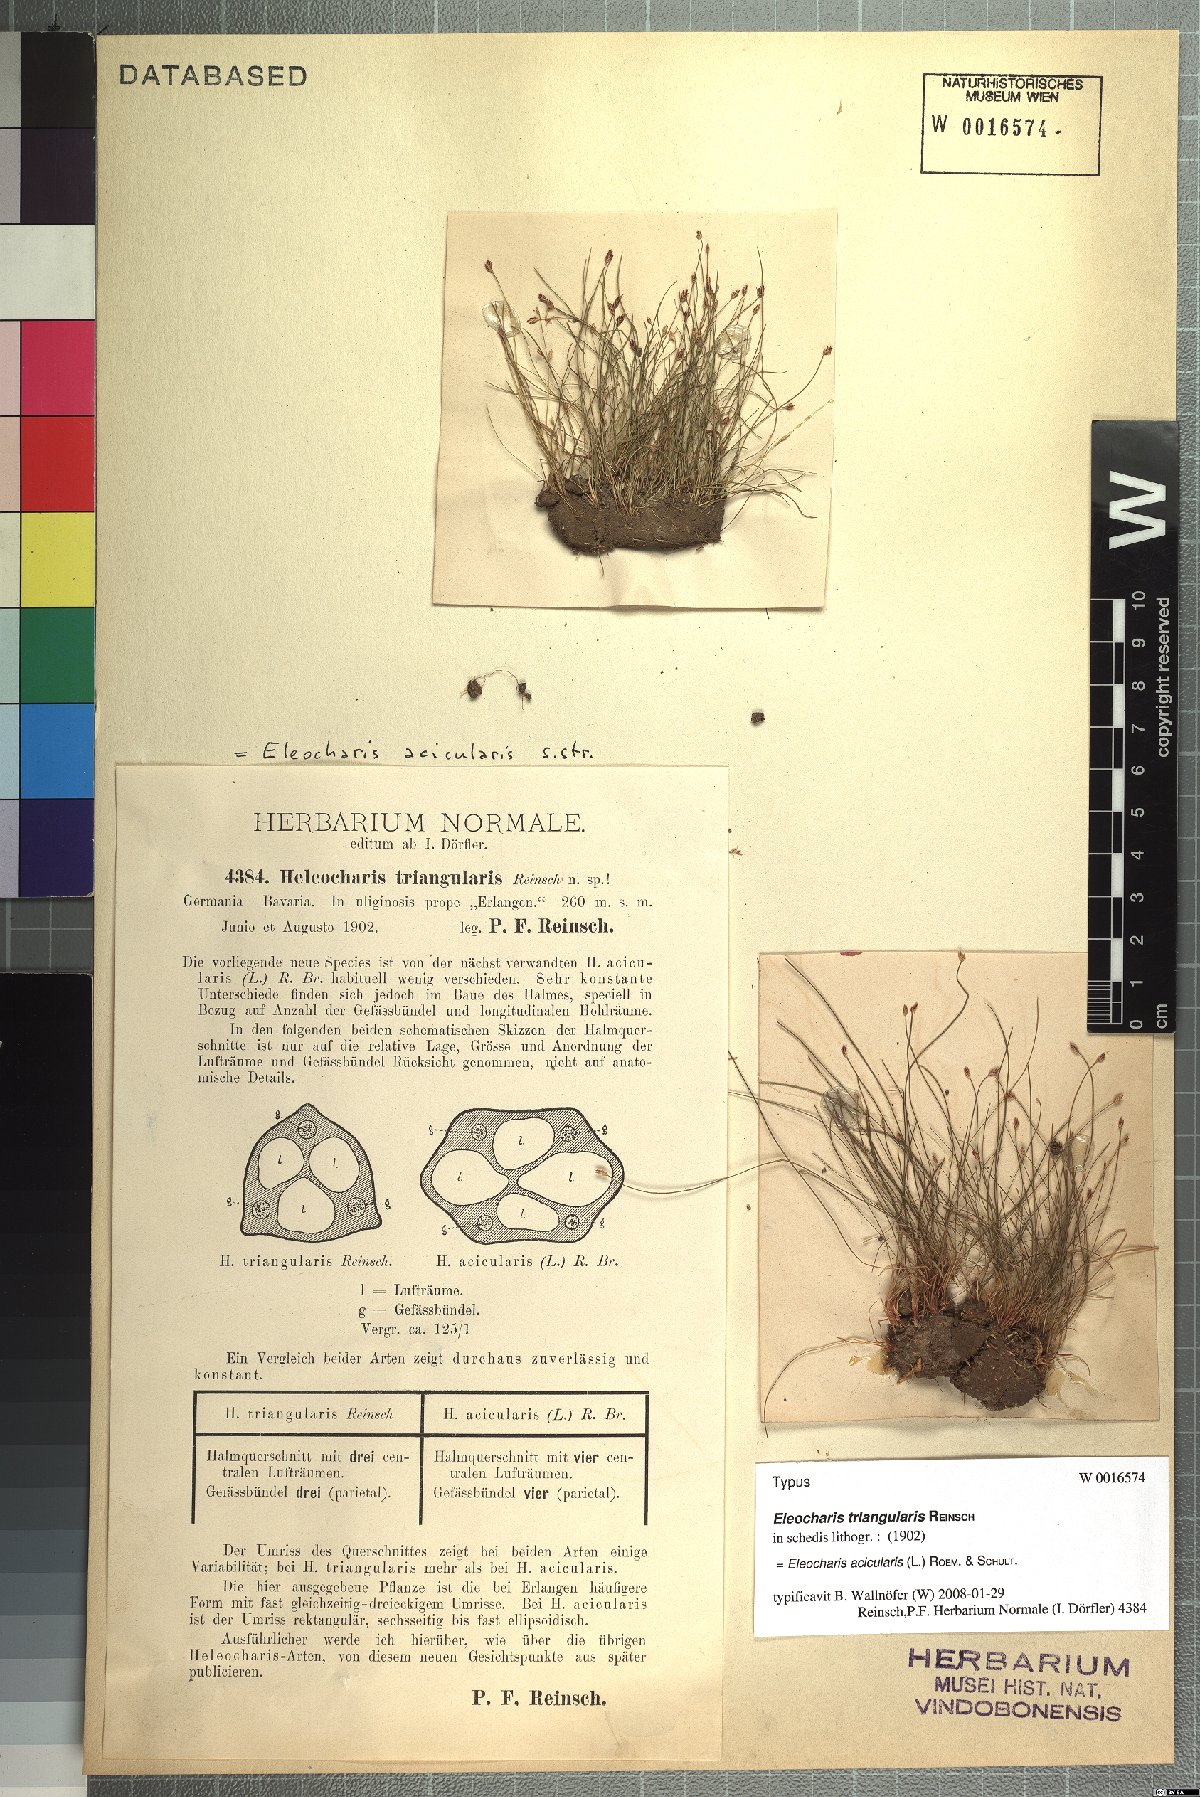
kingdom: Plantae
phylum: Tracheophyta
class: Liliopsida
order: Poales
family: Cyperaceae
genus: Eleocharis
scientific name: Eleocharis acicularis
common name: Needle spike-rush
